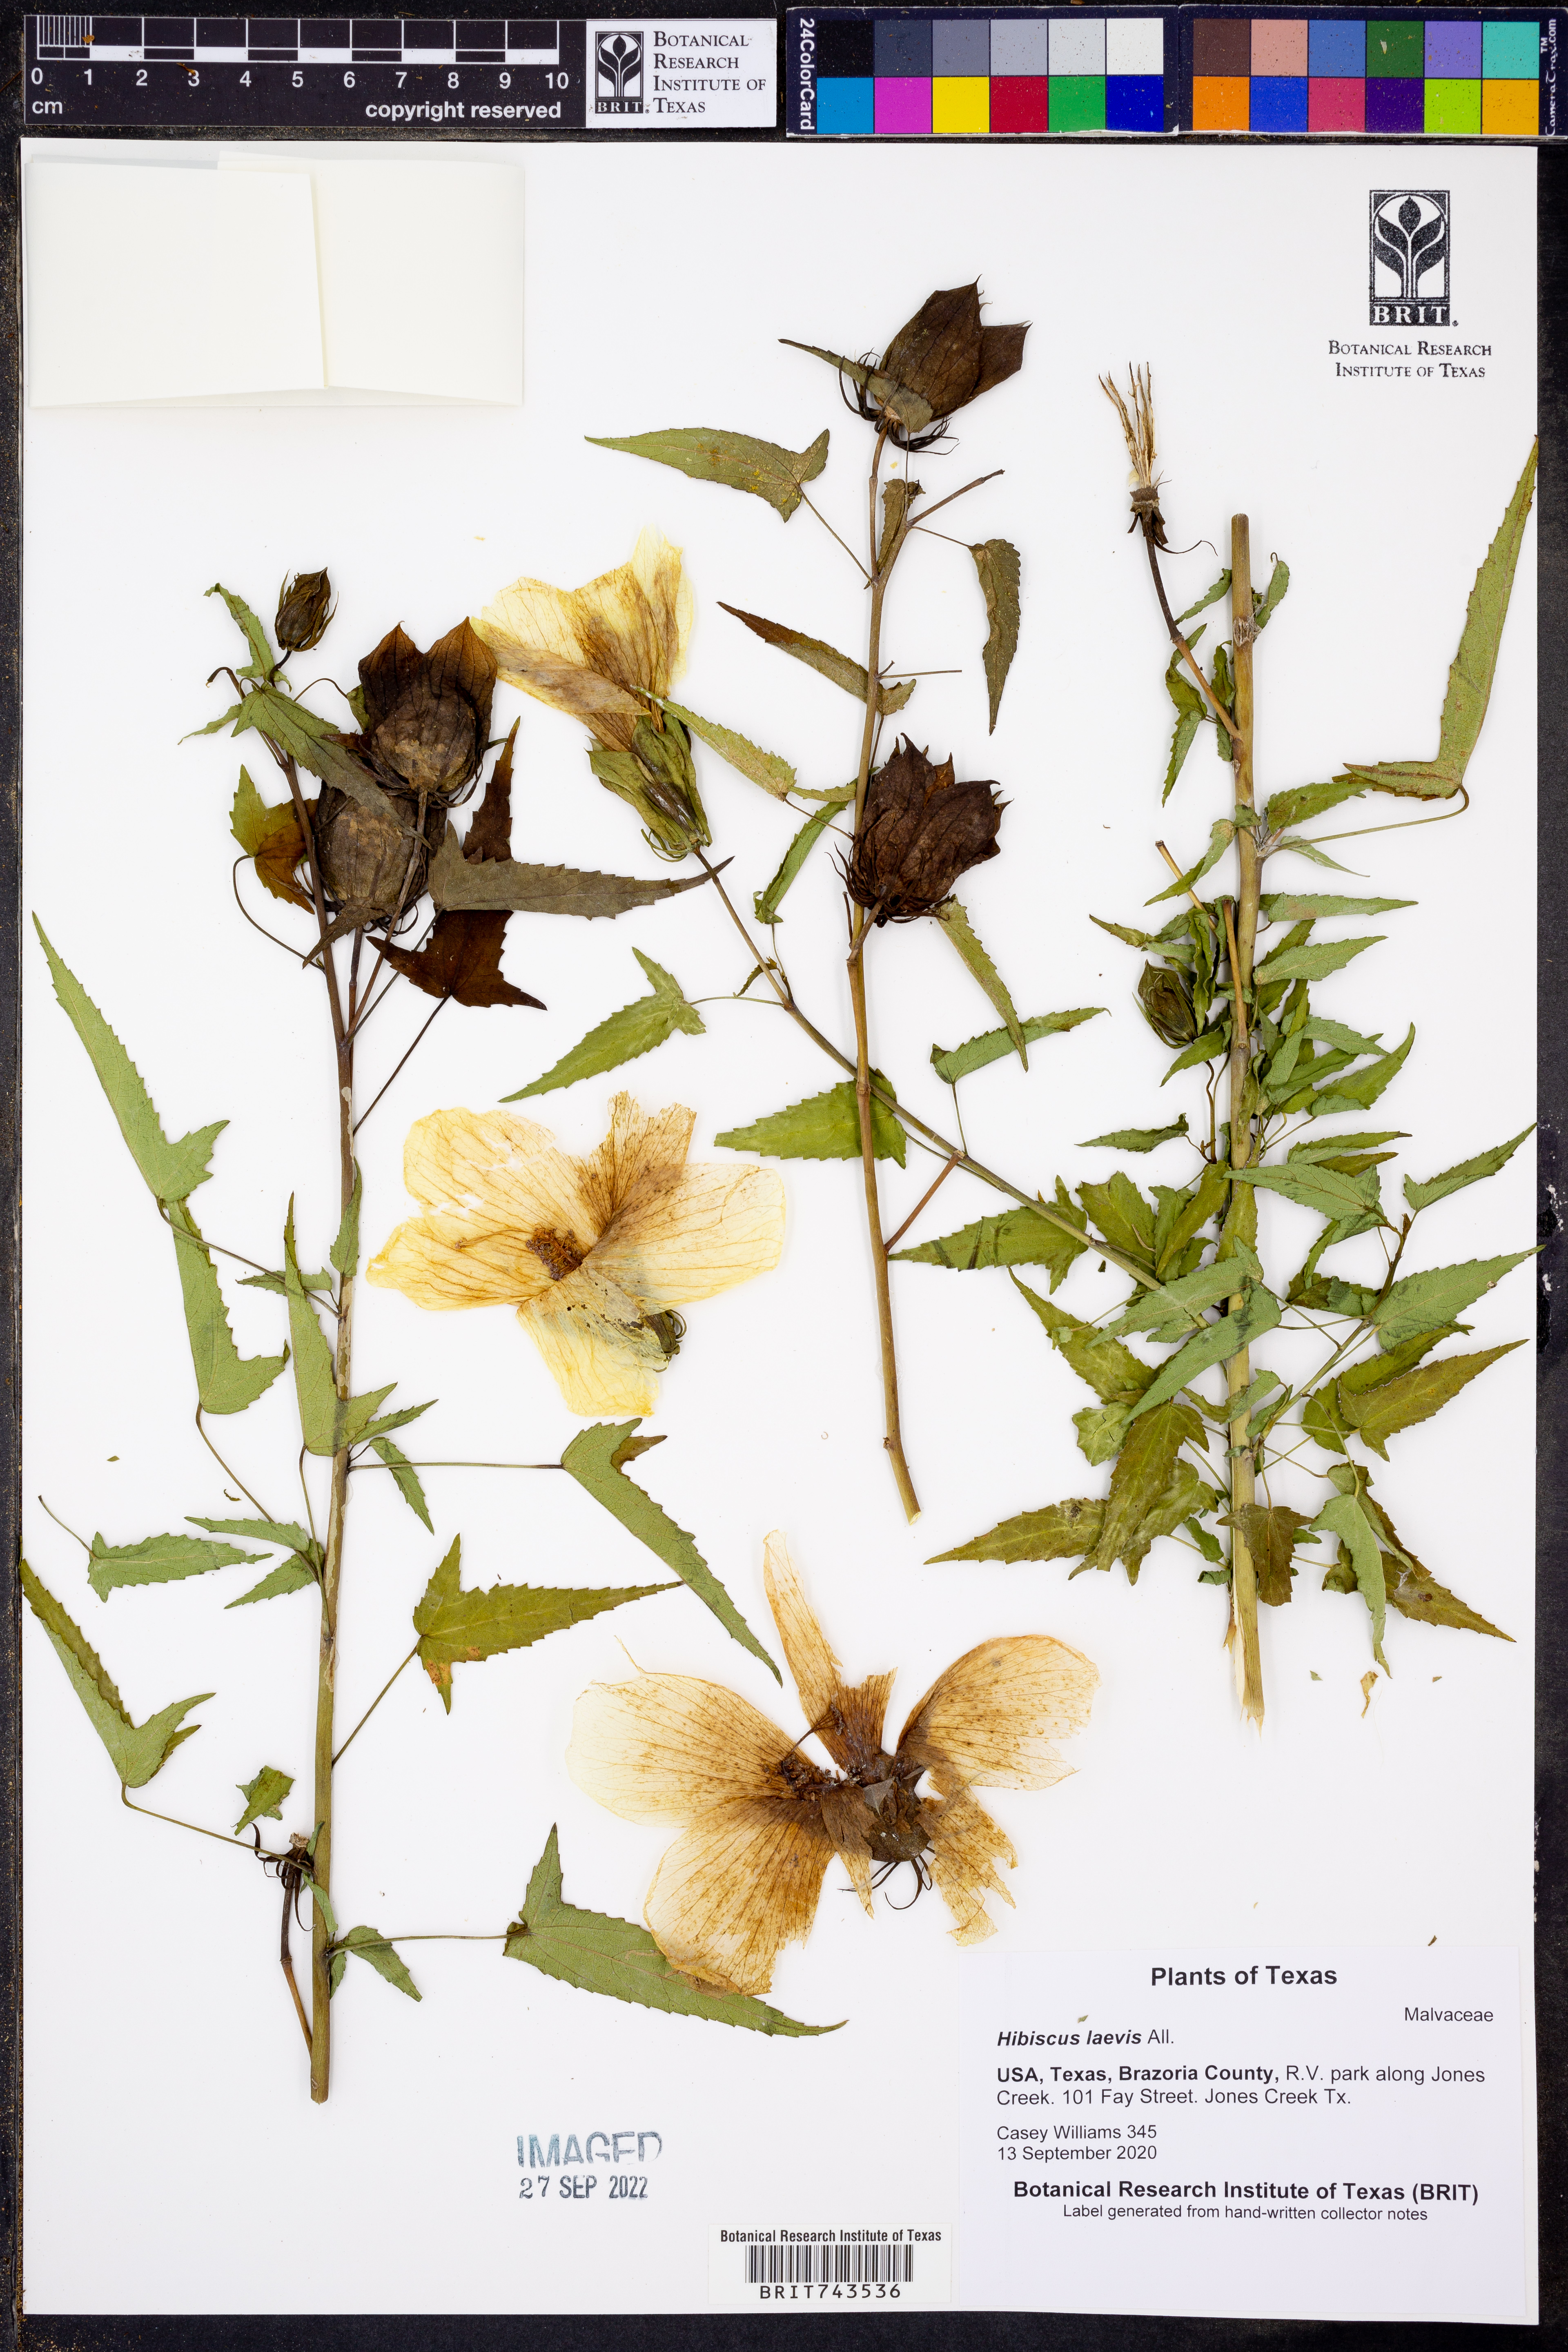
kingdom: Plantae
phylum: Tracheophyta
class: Magnoliopsida
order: Malvales
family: Malvaceae
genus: Hibiscus
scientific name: Hibiscus laevis
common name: Scarlet rose-mallow
